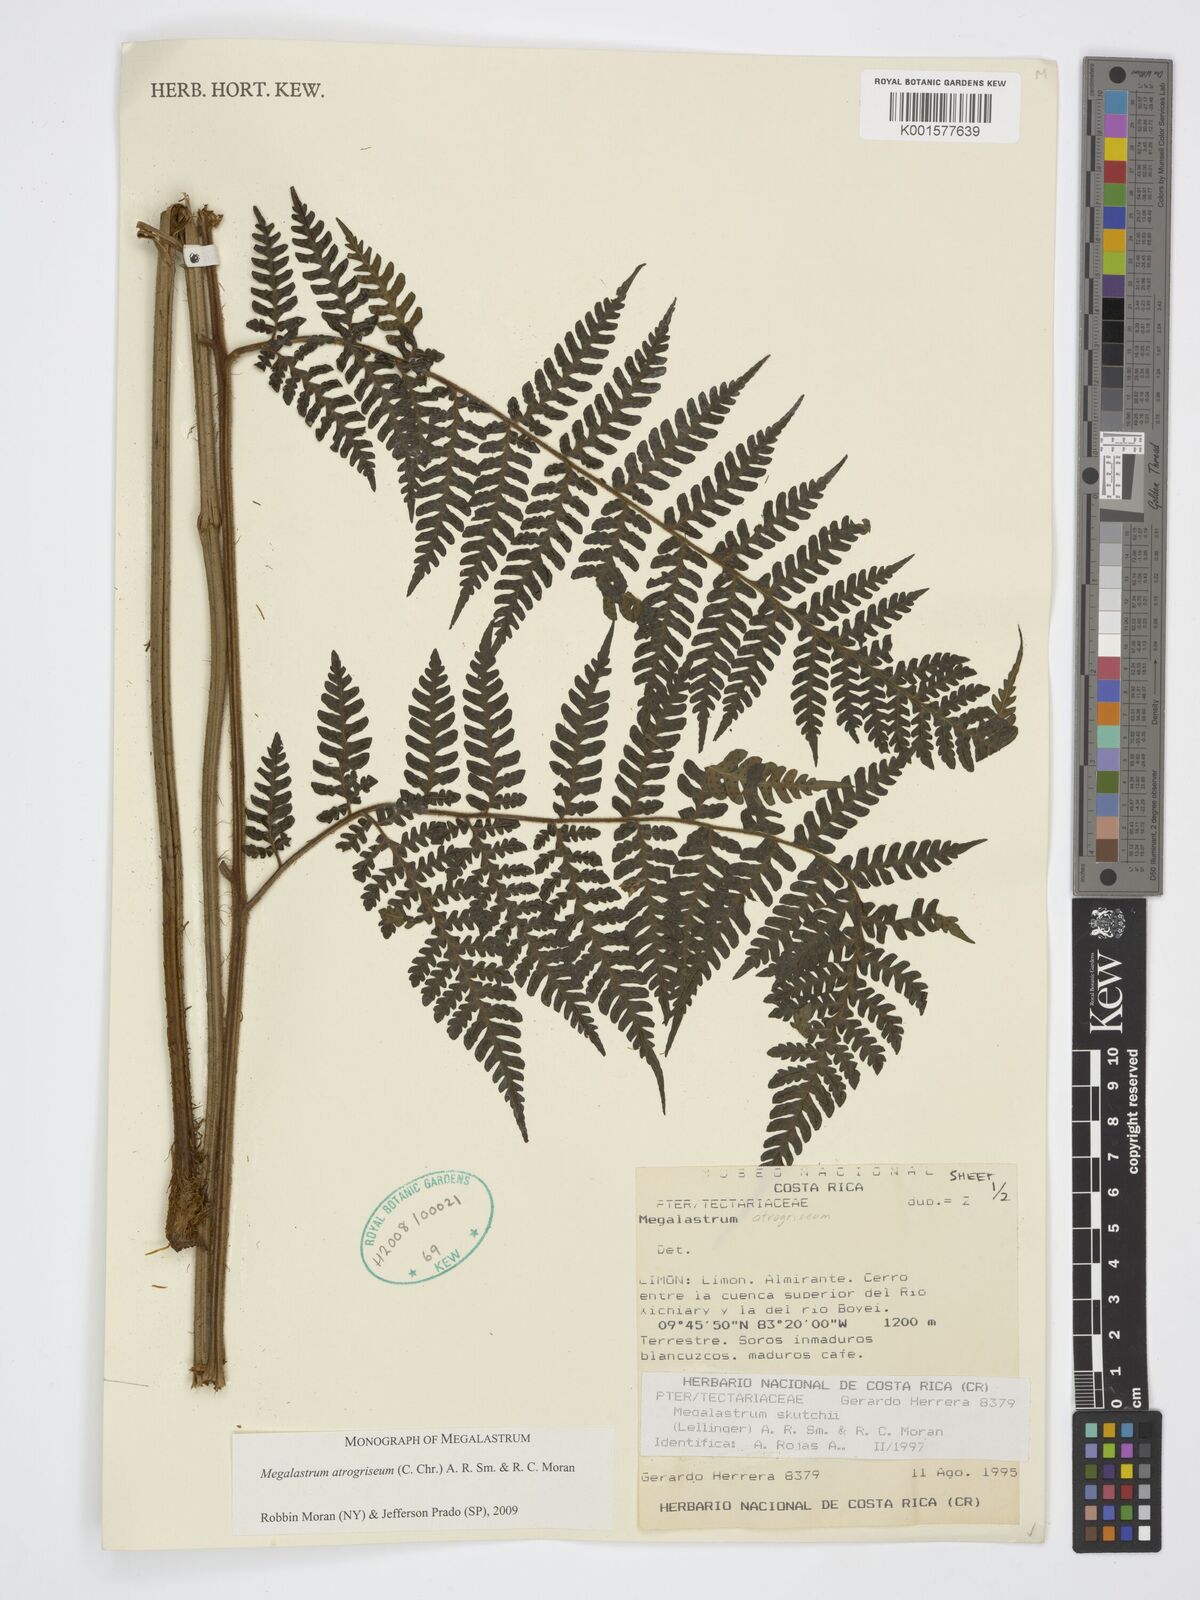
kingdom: Plantae
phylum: Tracheophyta
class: Polypodiopsida
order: Polypodiales
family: Dryopteridaceae
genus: Megalastrum
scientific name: Megalastrum atrogriseum
